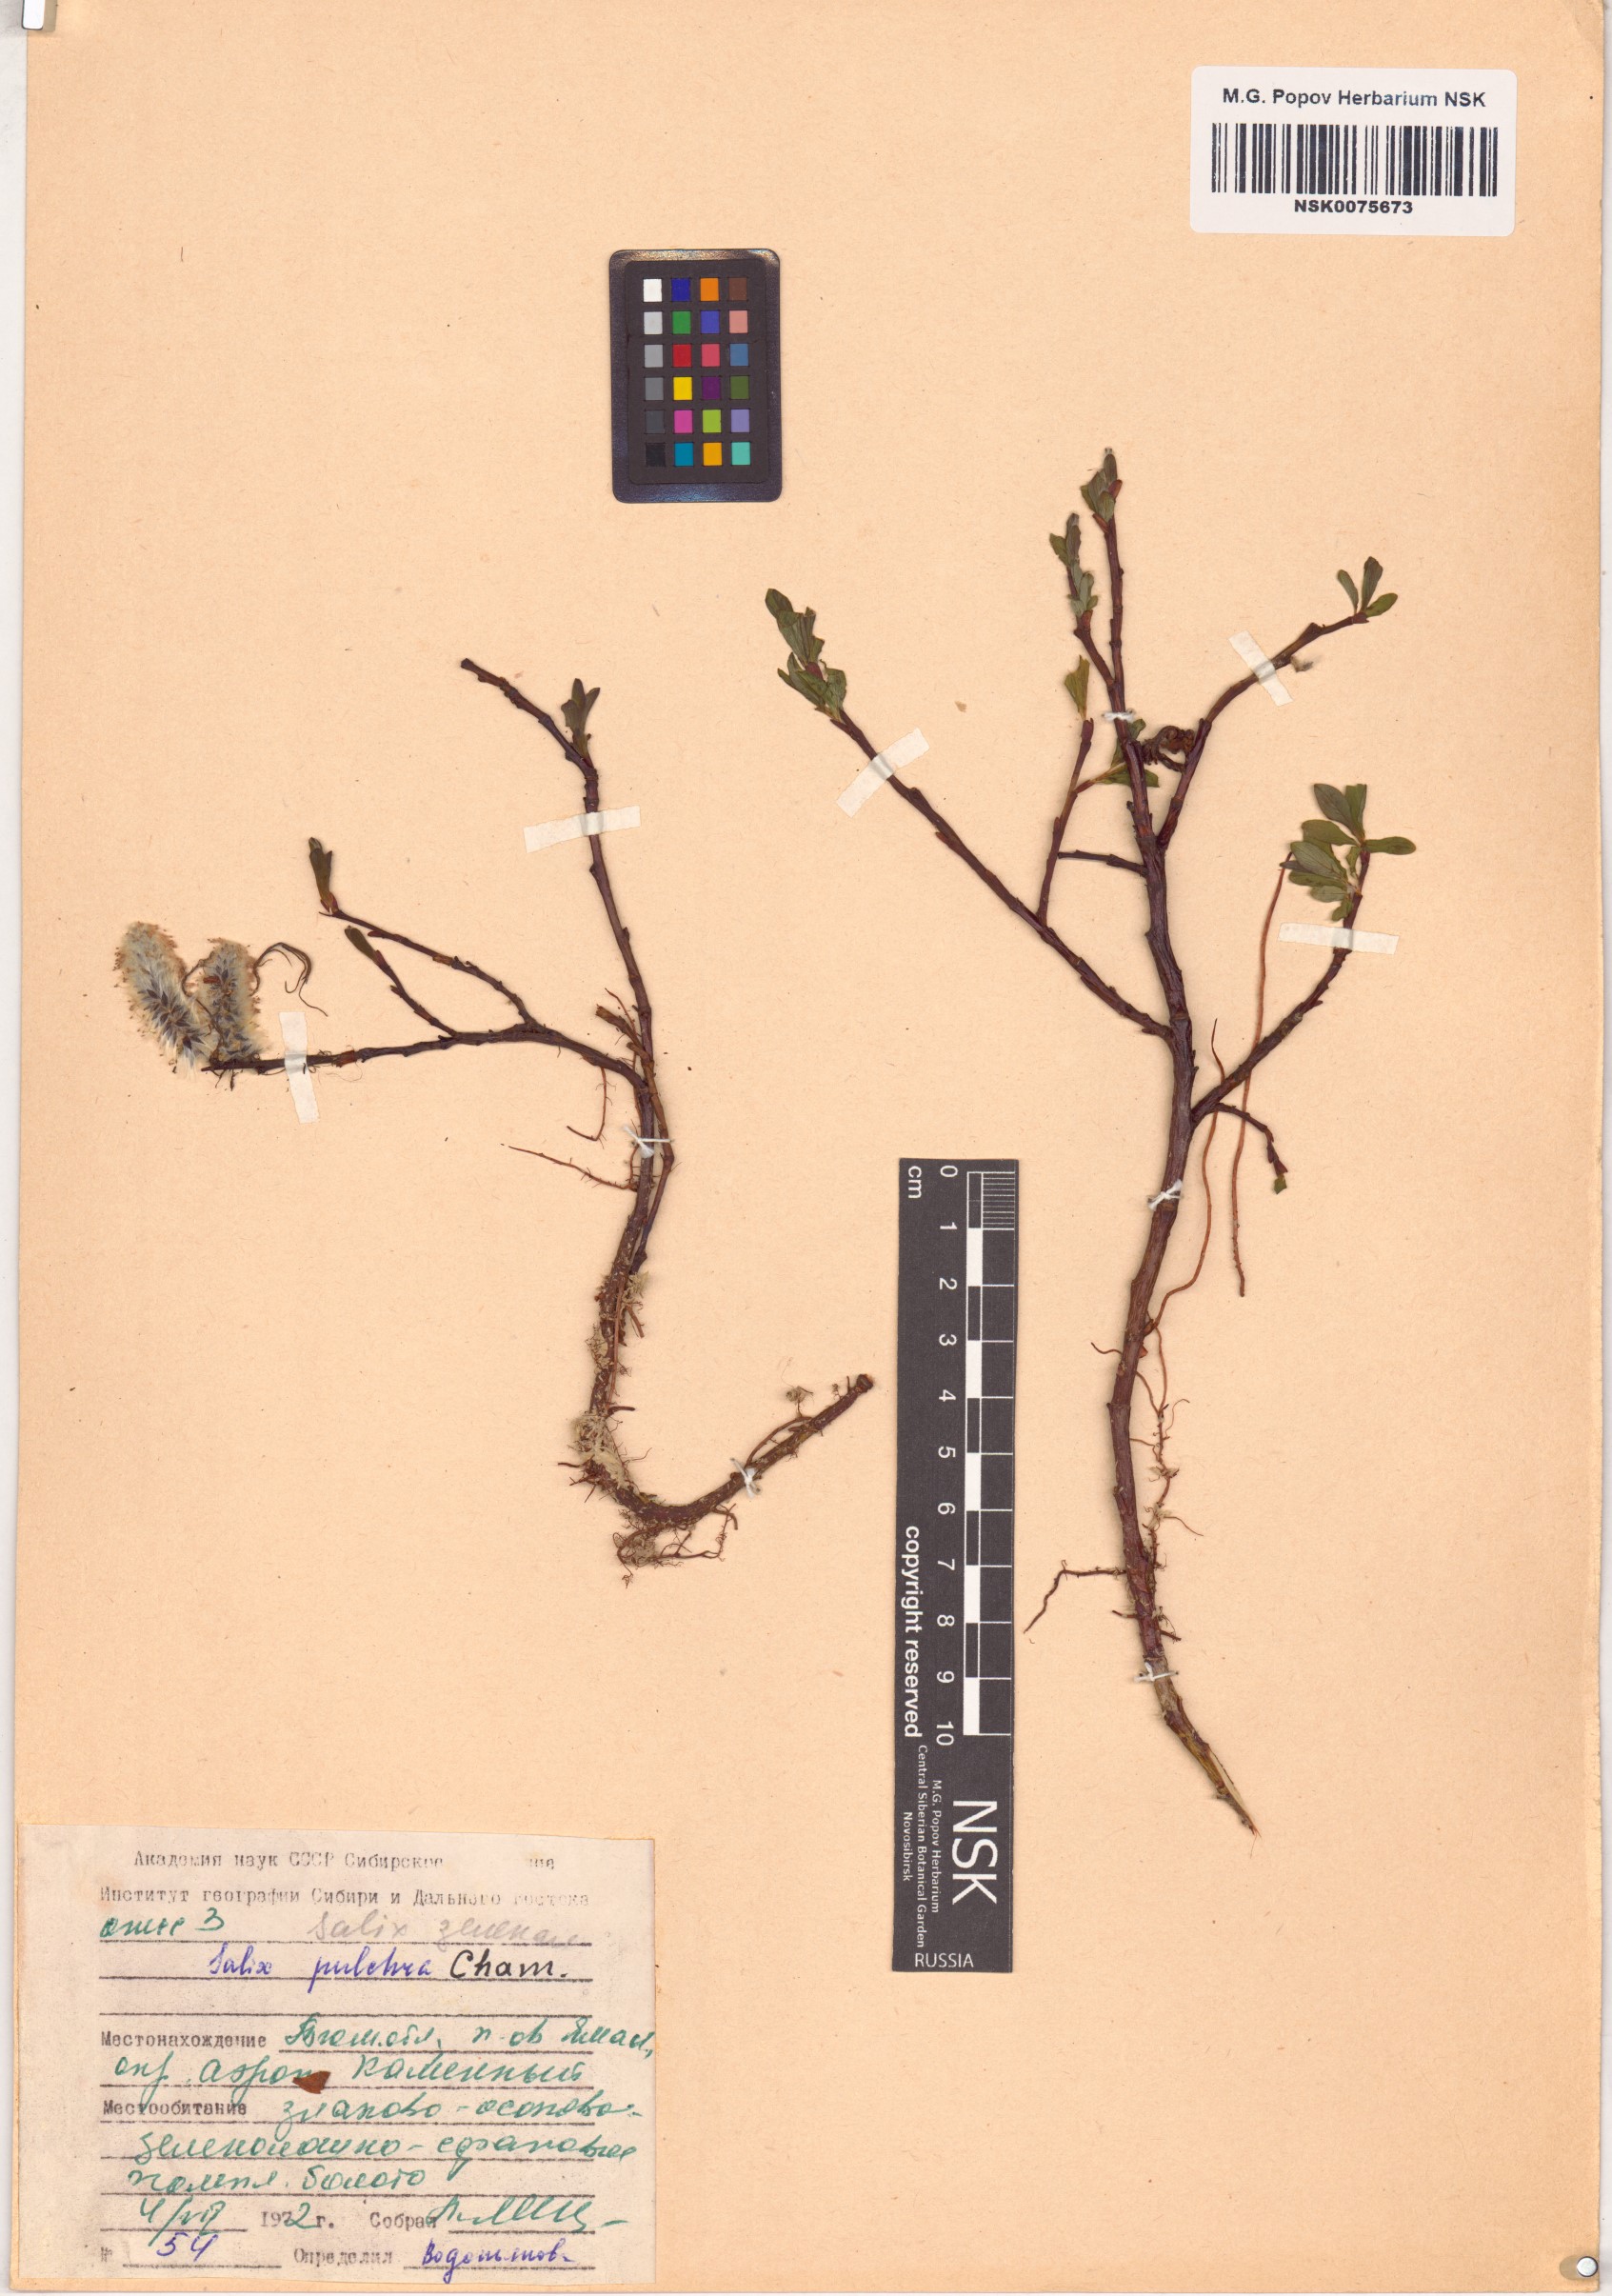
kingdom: Plantae
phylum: Tracheophyta
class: Magnoliopsida
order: Malpighiales
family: Salicaceae
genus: Salix
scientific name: Salix pulchra
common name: Diamond-leaved willow
